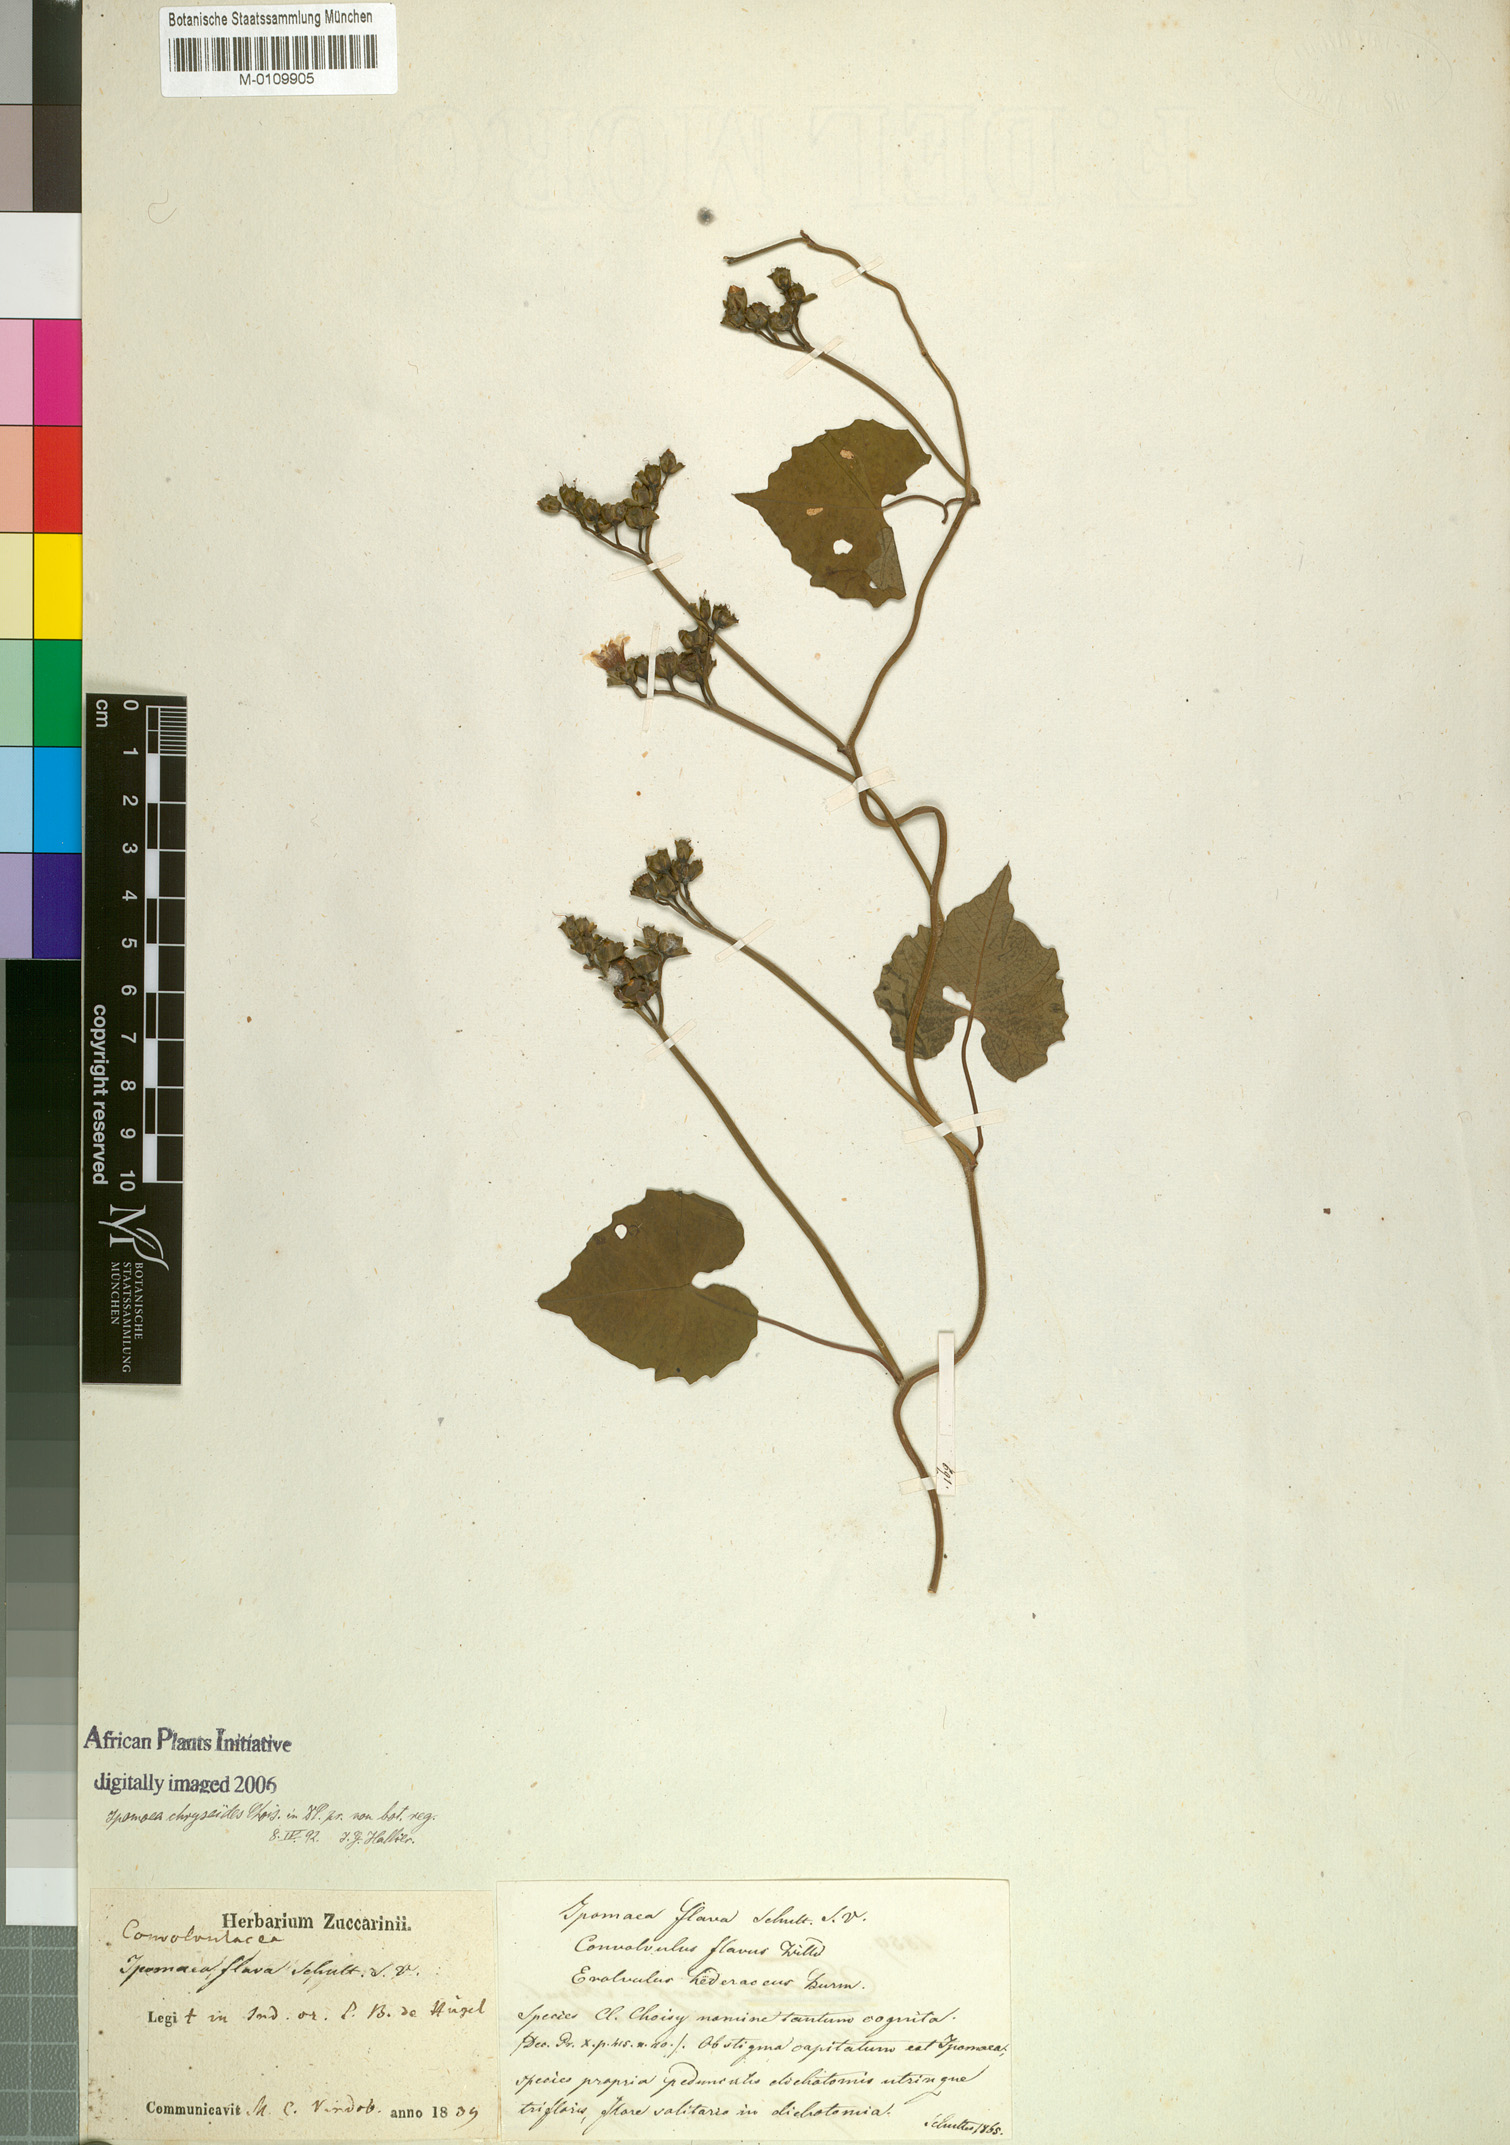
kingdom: Plantae
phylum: Tracheophyta
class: Magnoliopsida
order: Solanales
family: Convolvulaceae
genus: Merremia
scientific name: Merremia hederacea
